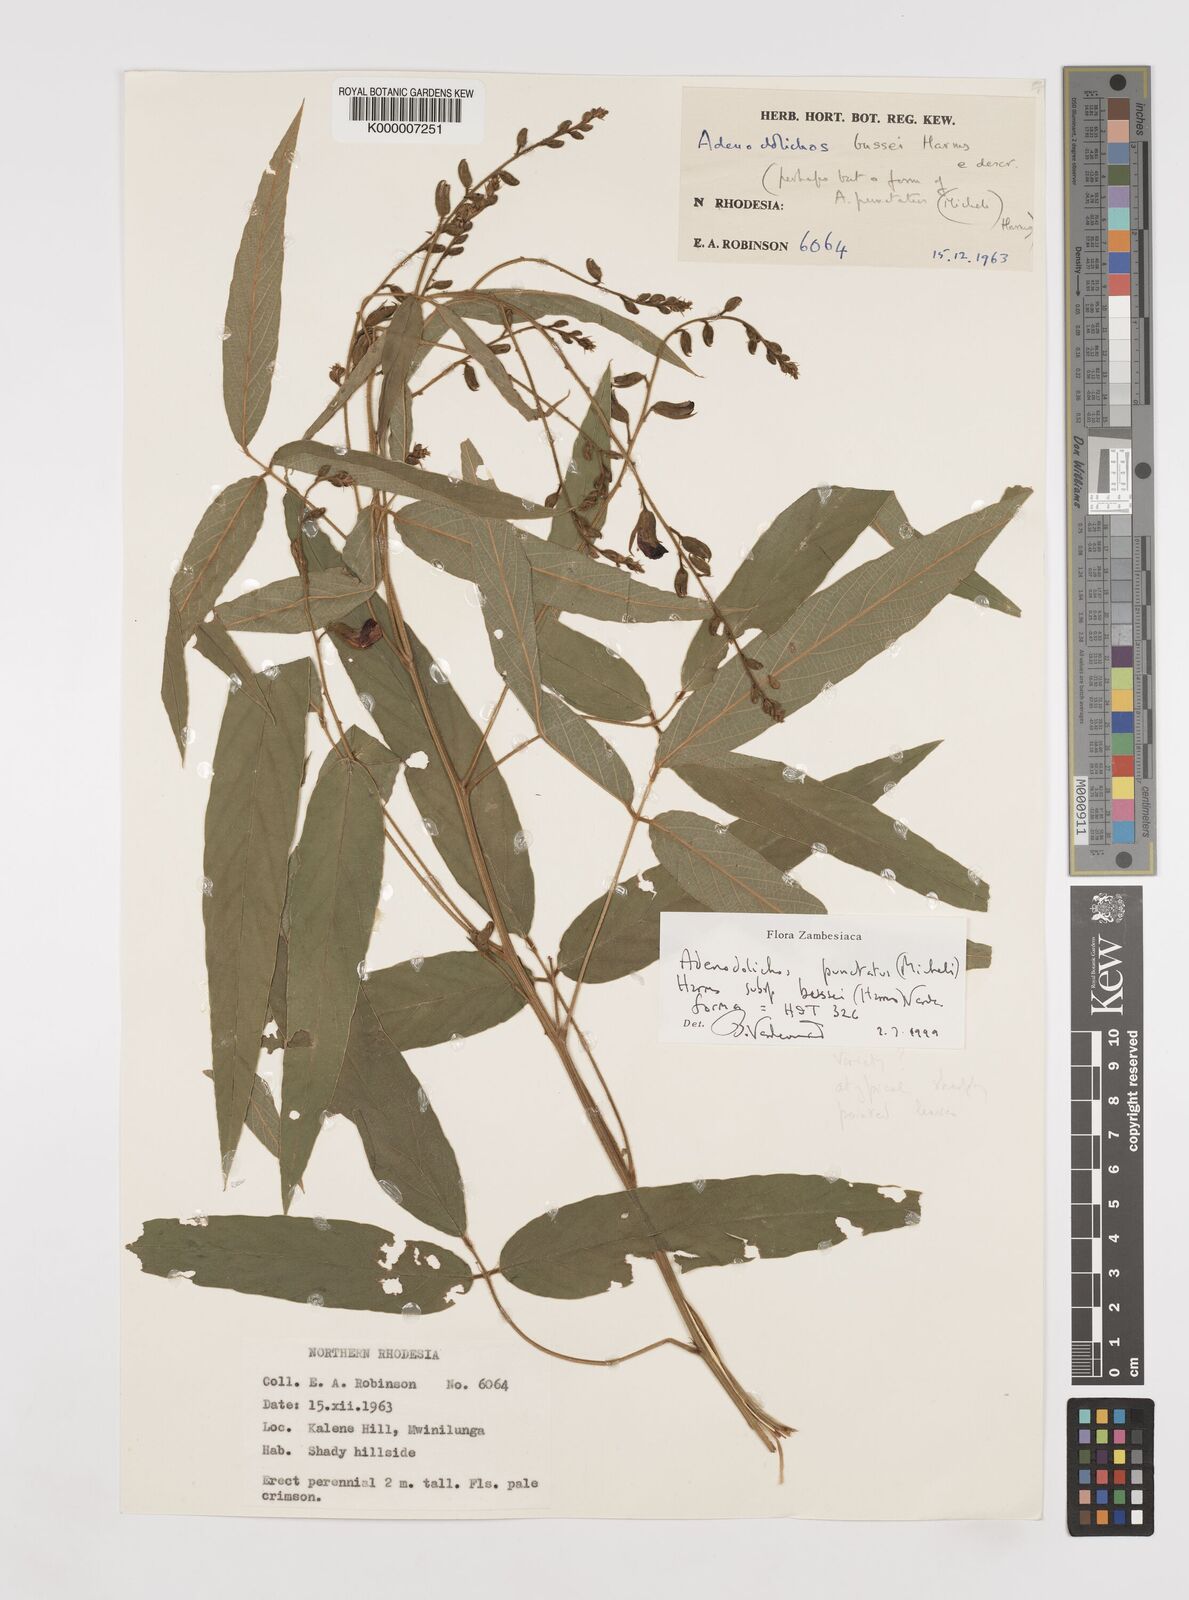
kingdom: Plantae
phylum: Tracheophyta
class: Magnoliopsida
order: Fabales
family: Fabaceae
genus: Adenodolichos
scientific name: Adenodolichos punctatus
